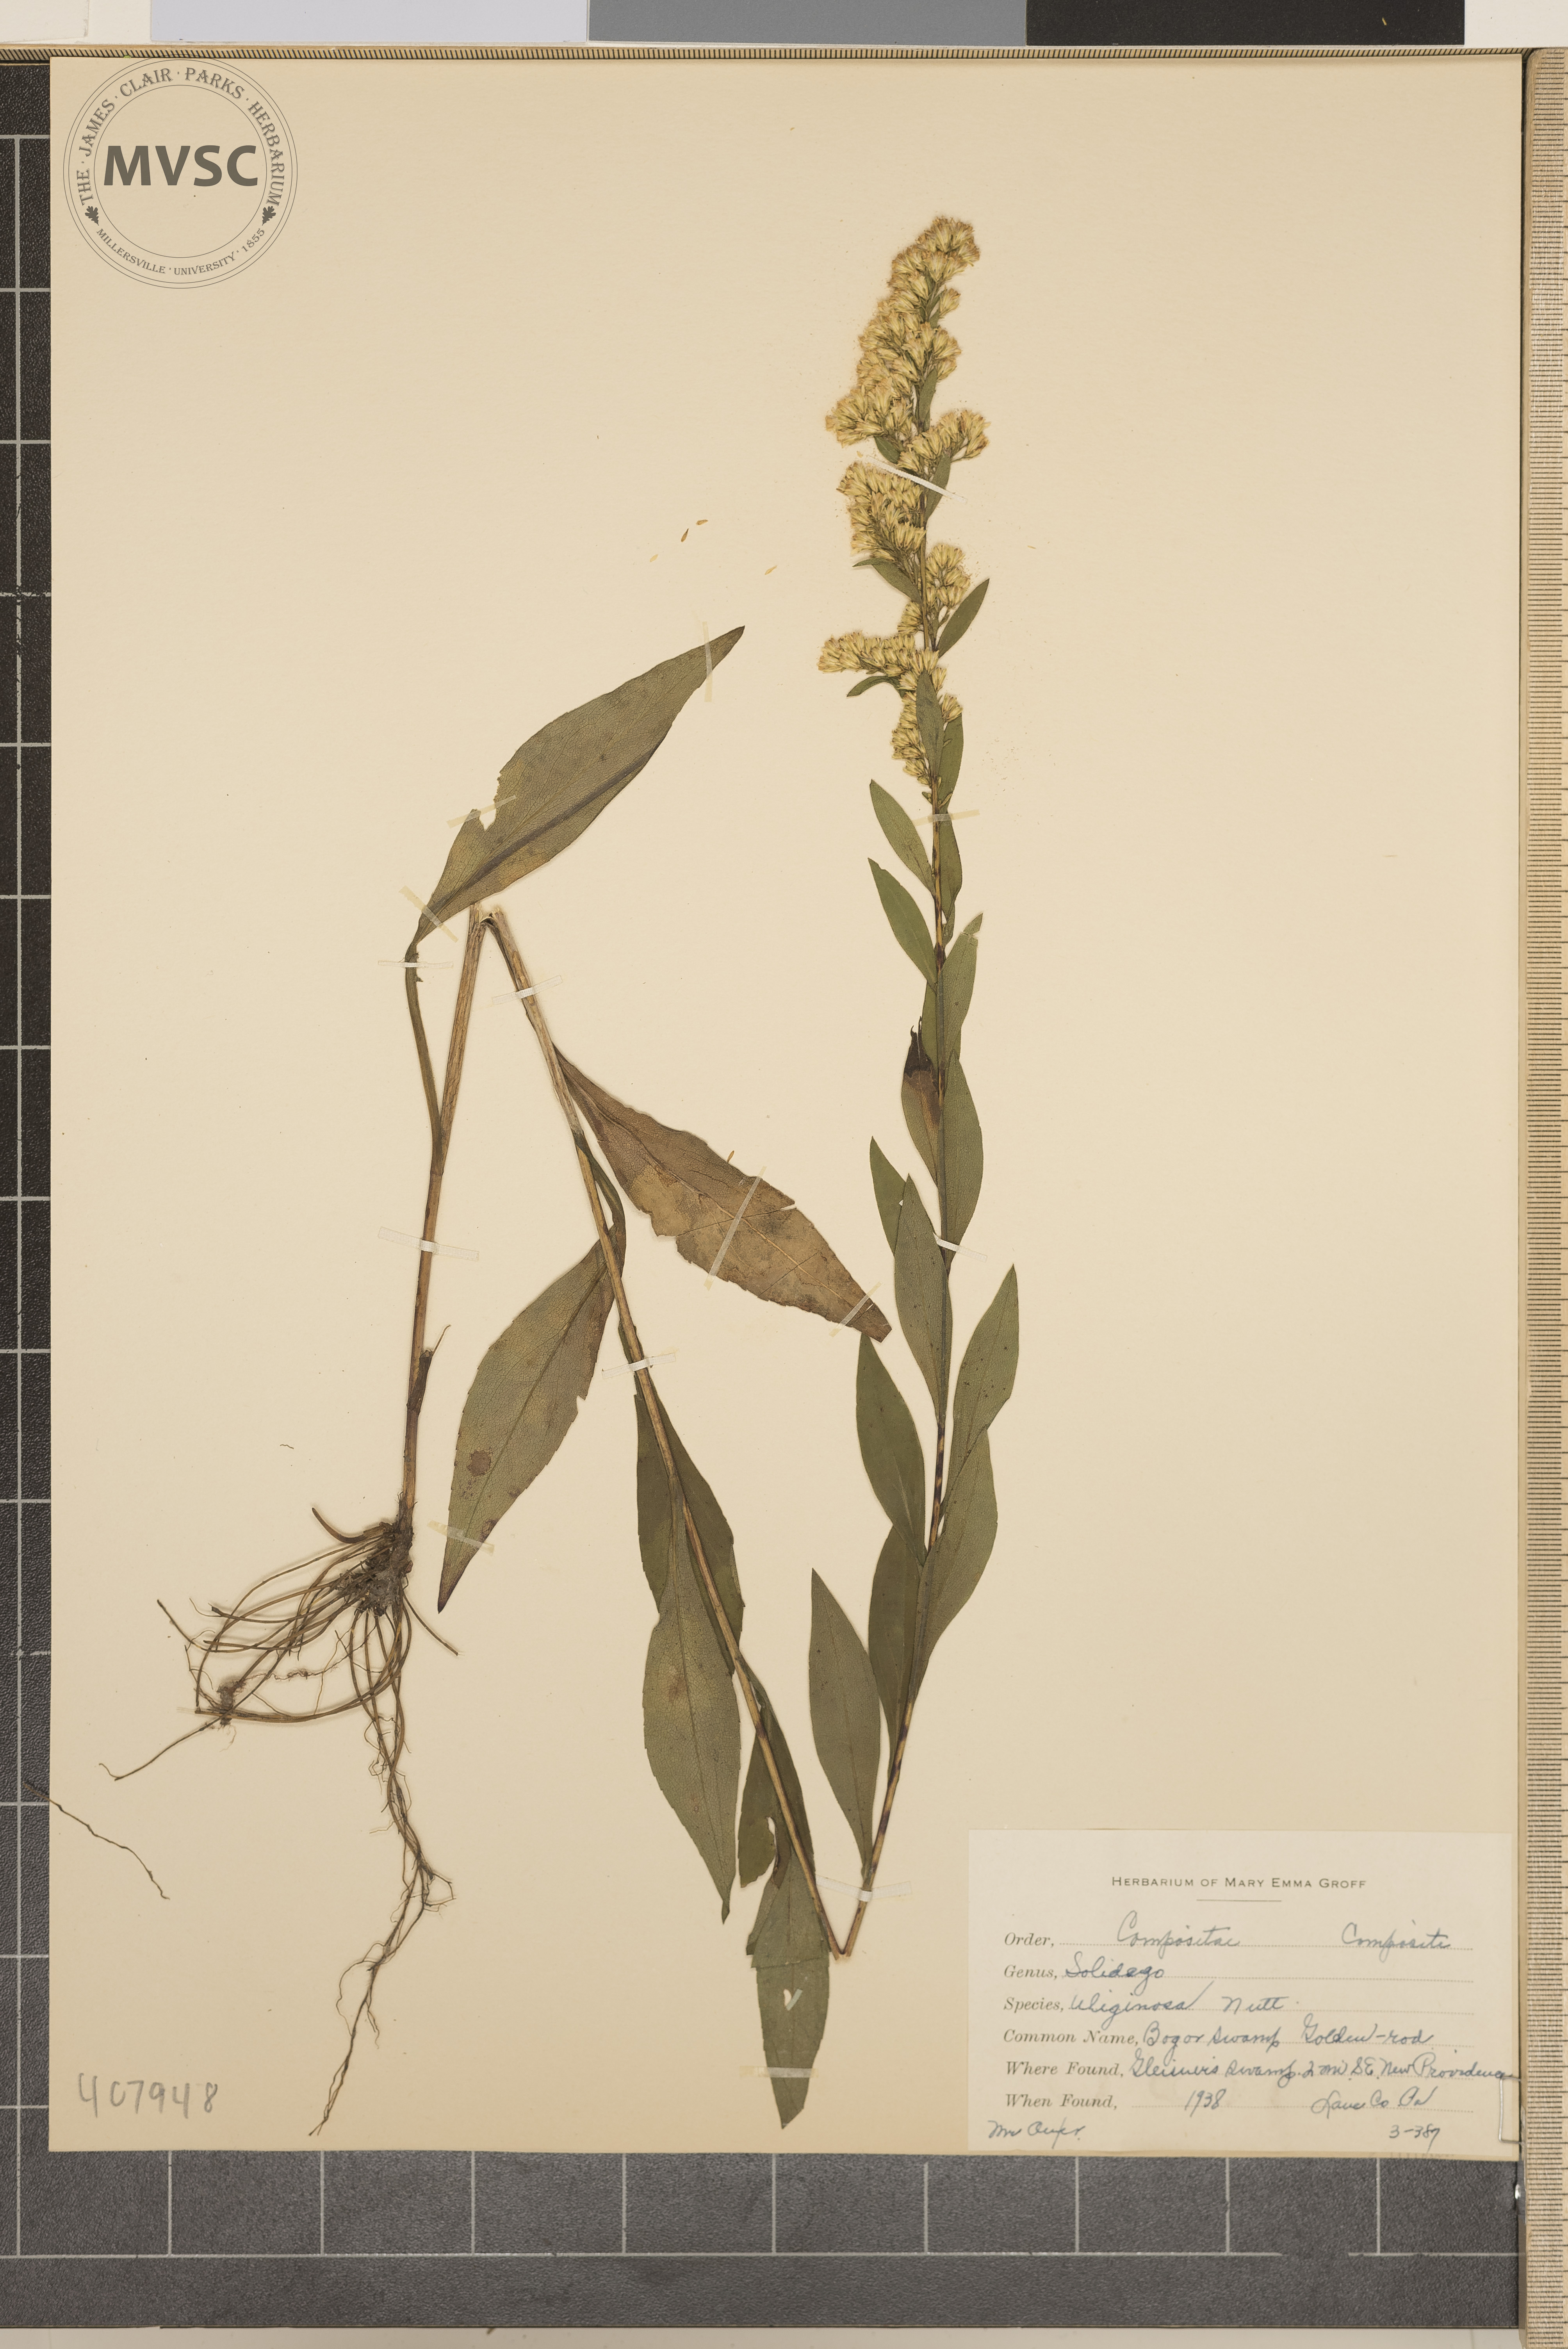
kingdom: Plantae
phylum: Tracheophyta
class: Magnoliopsida
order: Asterales
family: Asteraceae
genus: Solidago
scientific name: Solidago uliginosa
